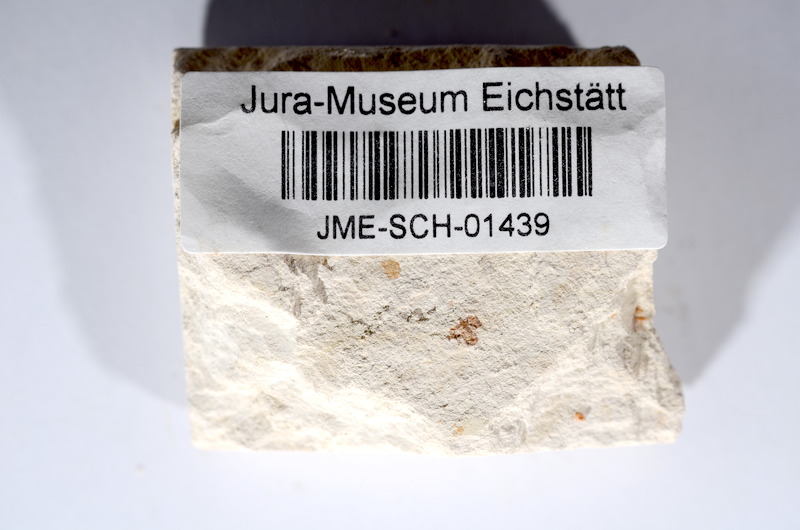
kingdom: Animalia
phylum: Chordata
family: Ascalaboidae
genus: Tharsis
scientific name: Tharsis dubius
